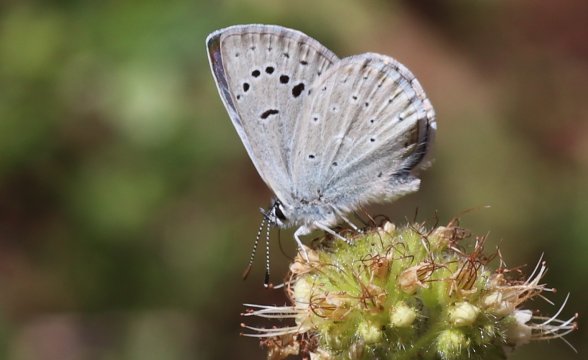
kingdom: Animalia
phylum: Arthropoda
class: Insecta
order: Lepidoptera
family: Lycaenidae
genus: Icaricia
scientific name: Icaricia icarioides
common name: Boisduval's Blue
